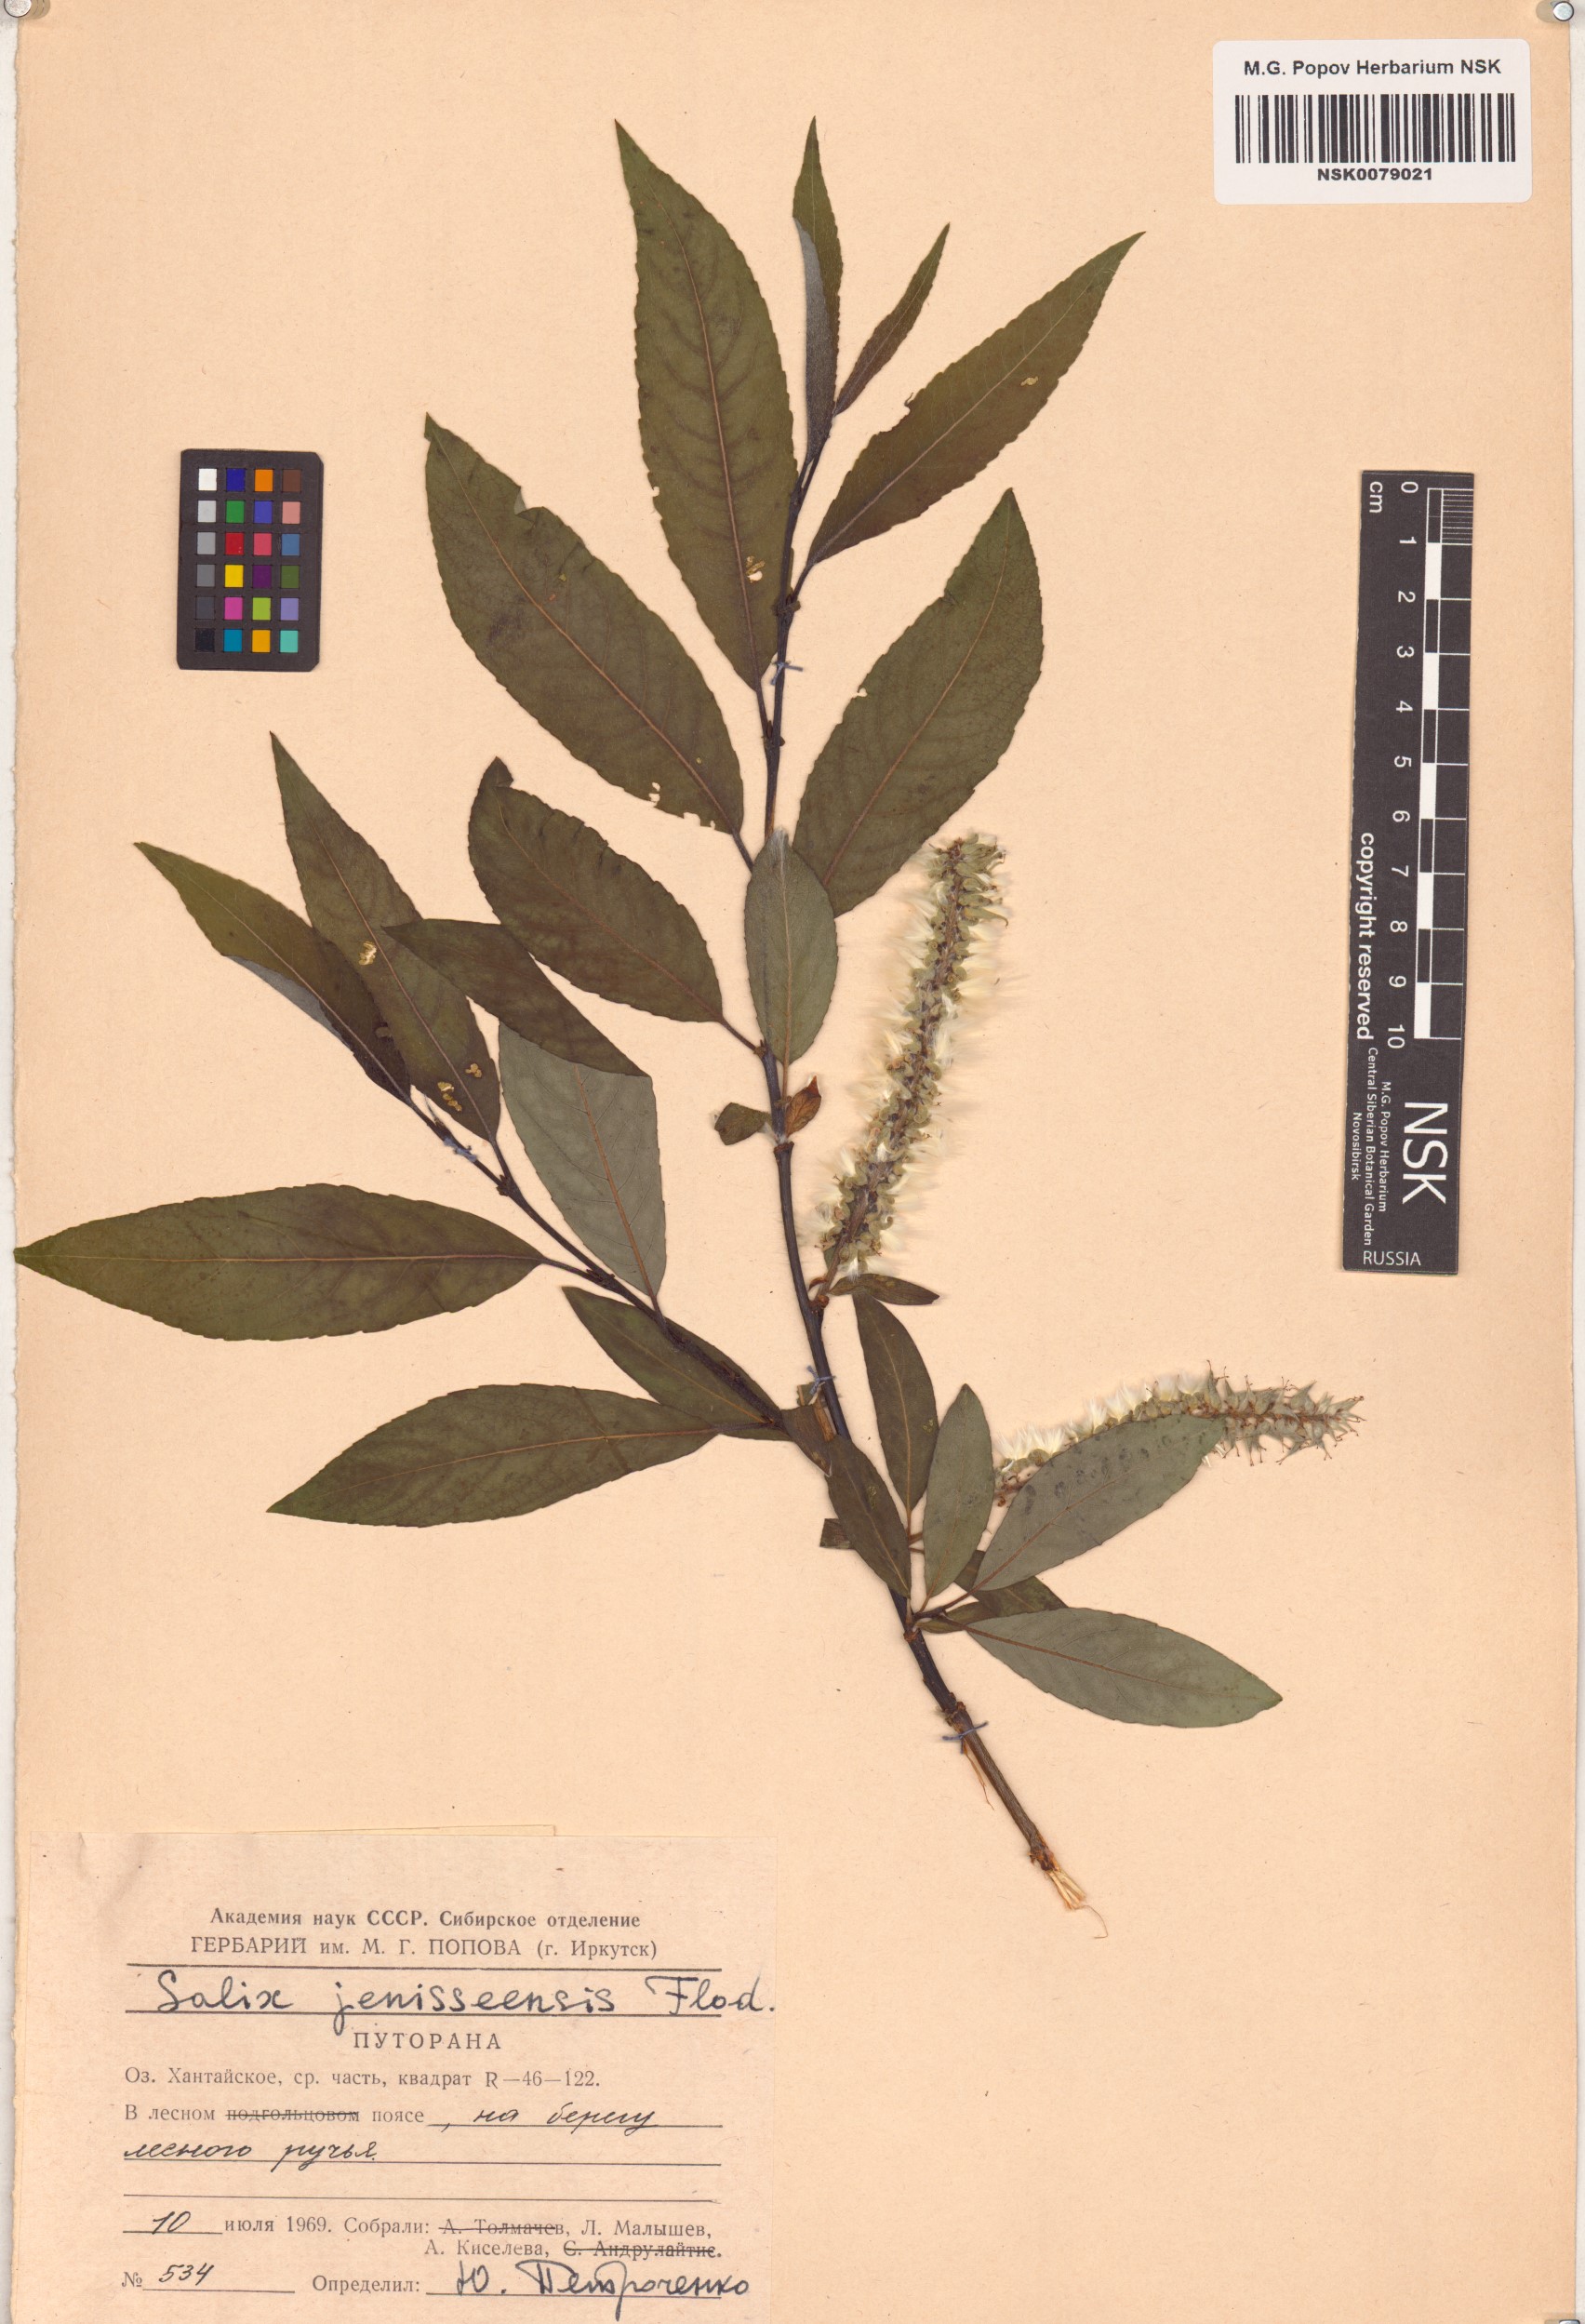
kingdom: Plantae
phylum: Tracheophyta
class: Magnoliopsida
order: Malpighiales
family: Salicaceae
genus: Salix
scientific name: Salix jenisseensis
